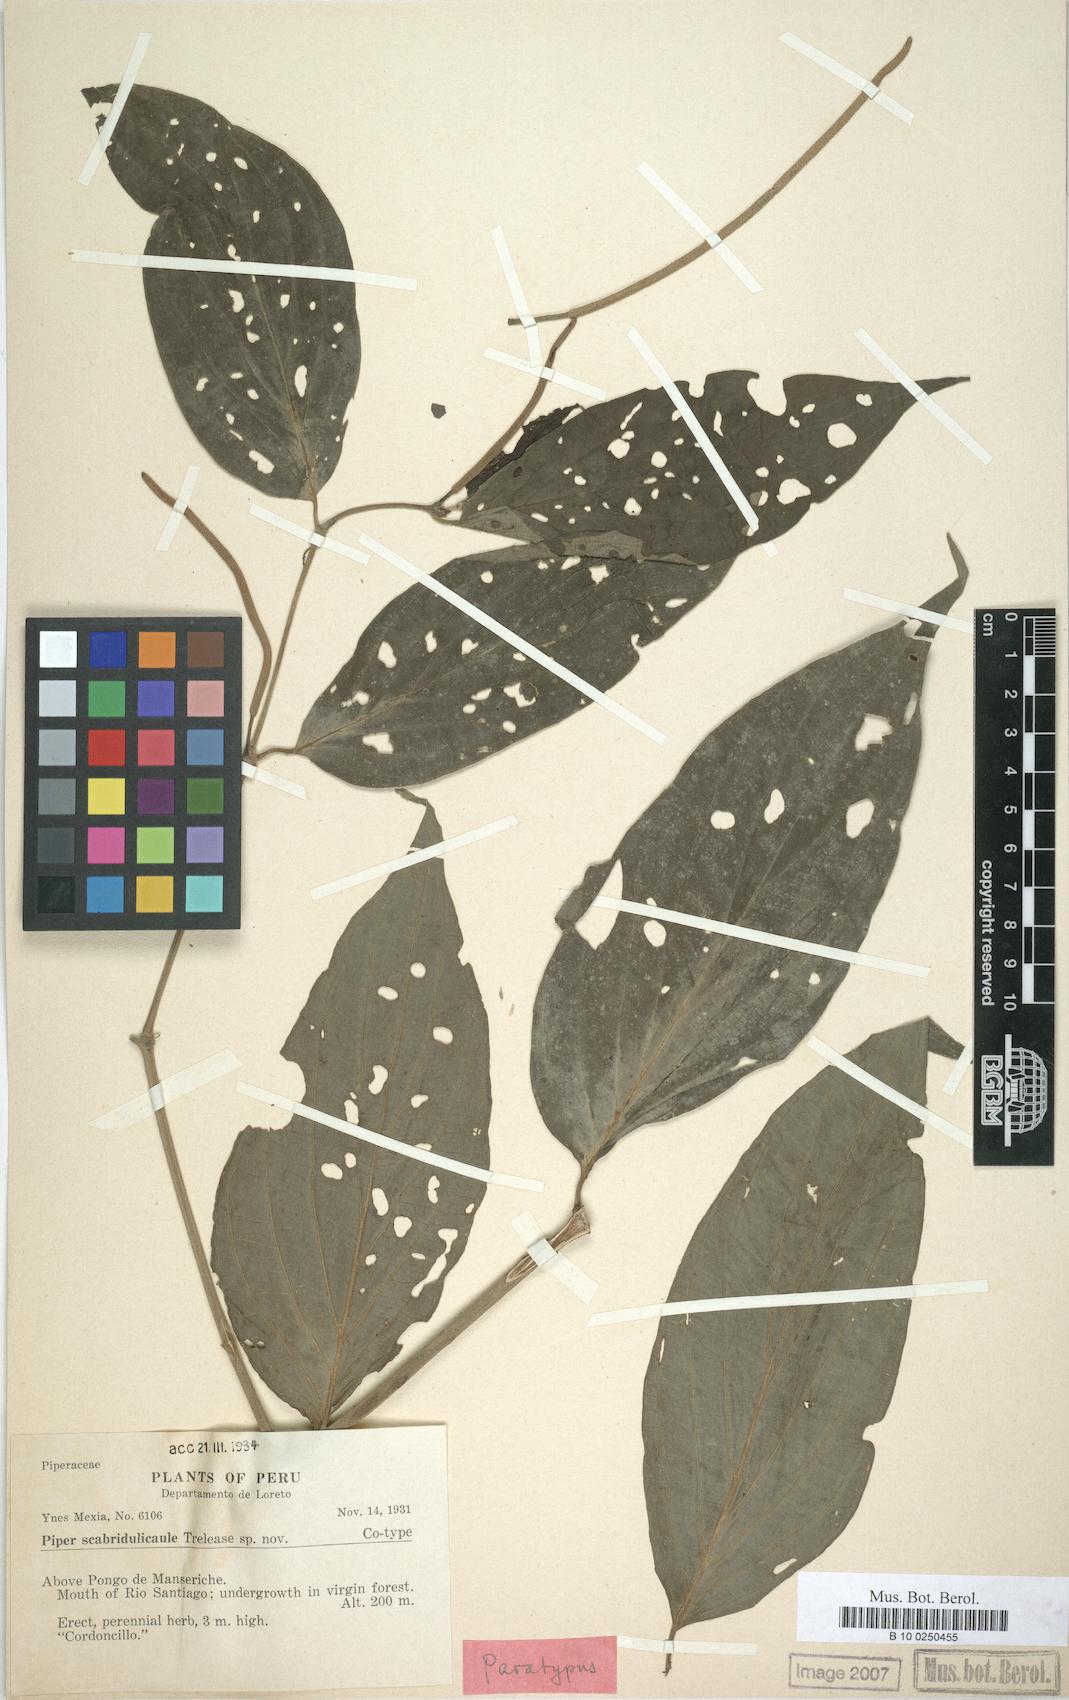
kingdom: Plantae
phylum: Tracheophyta
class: Magnoliopsida
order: Piperales
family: Piperaceae
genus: Piper
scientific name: Piper scabridulicaule
